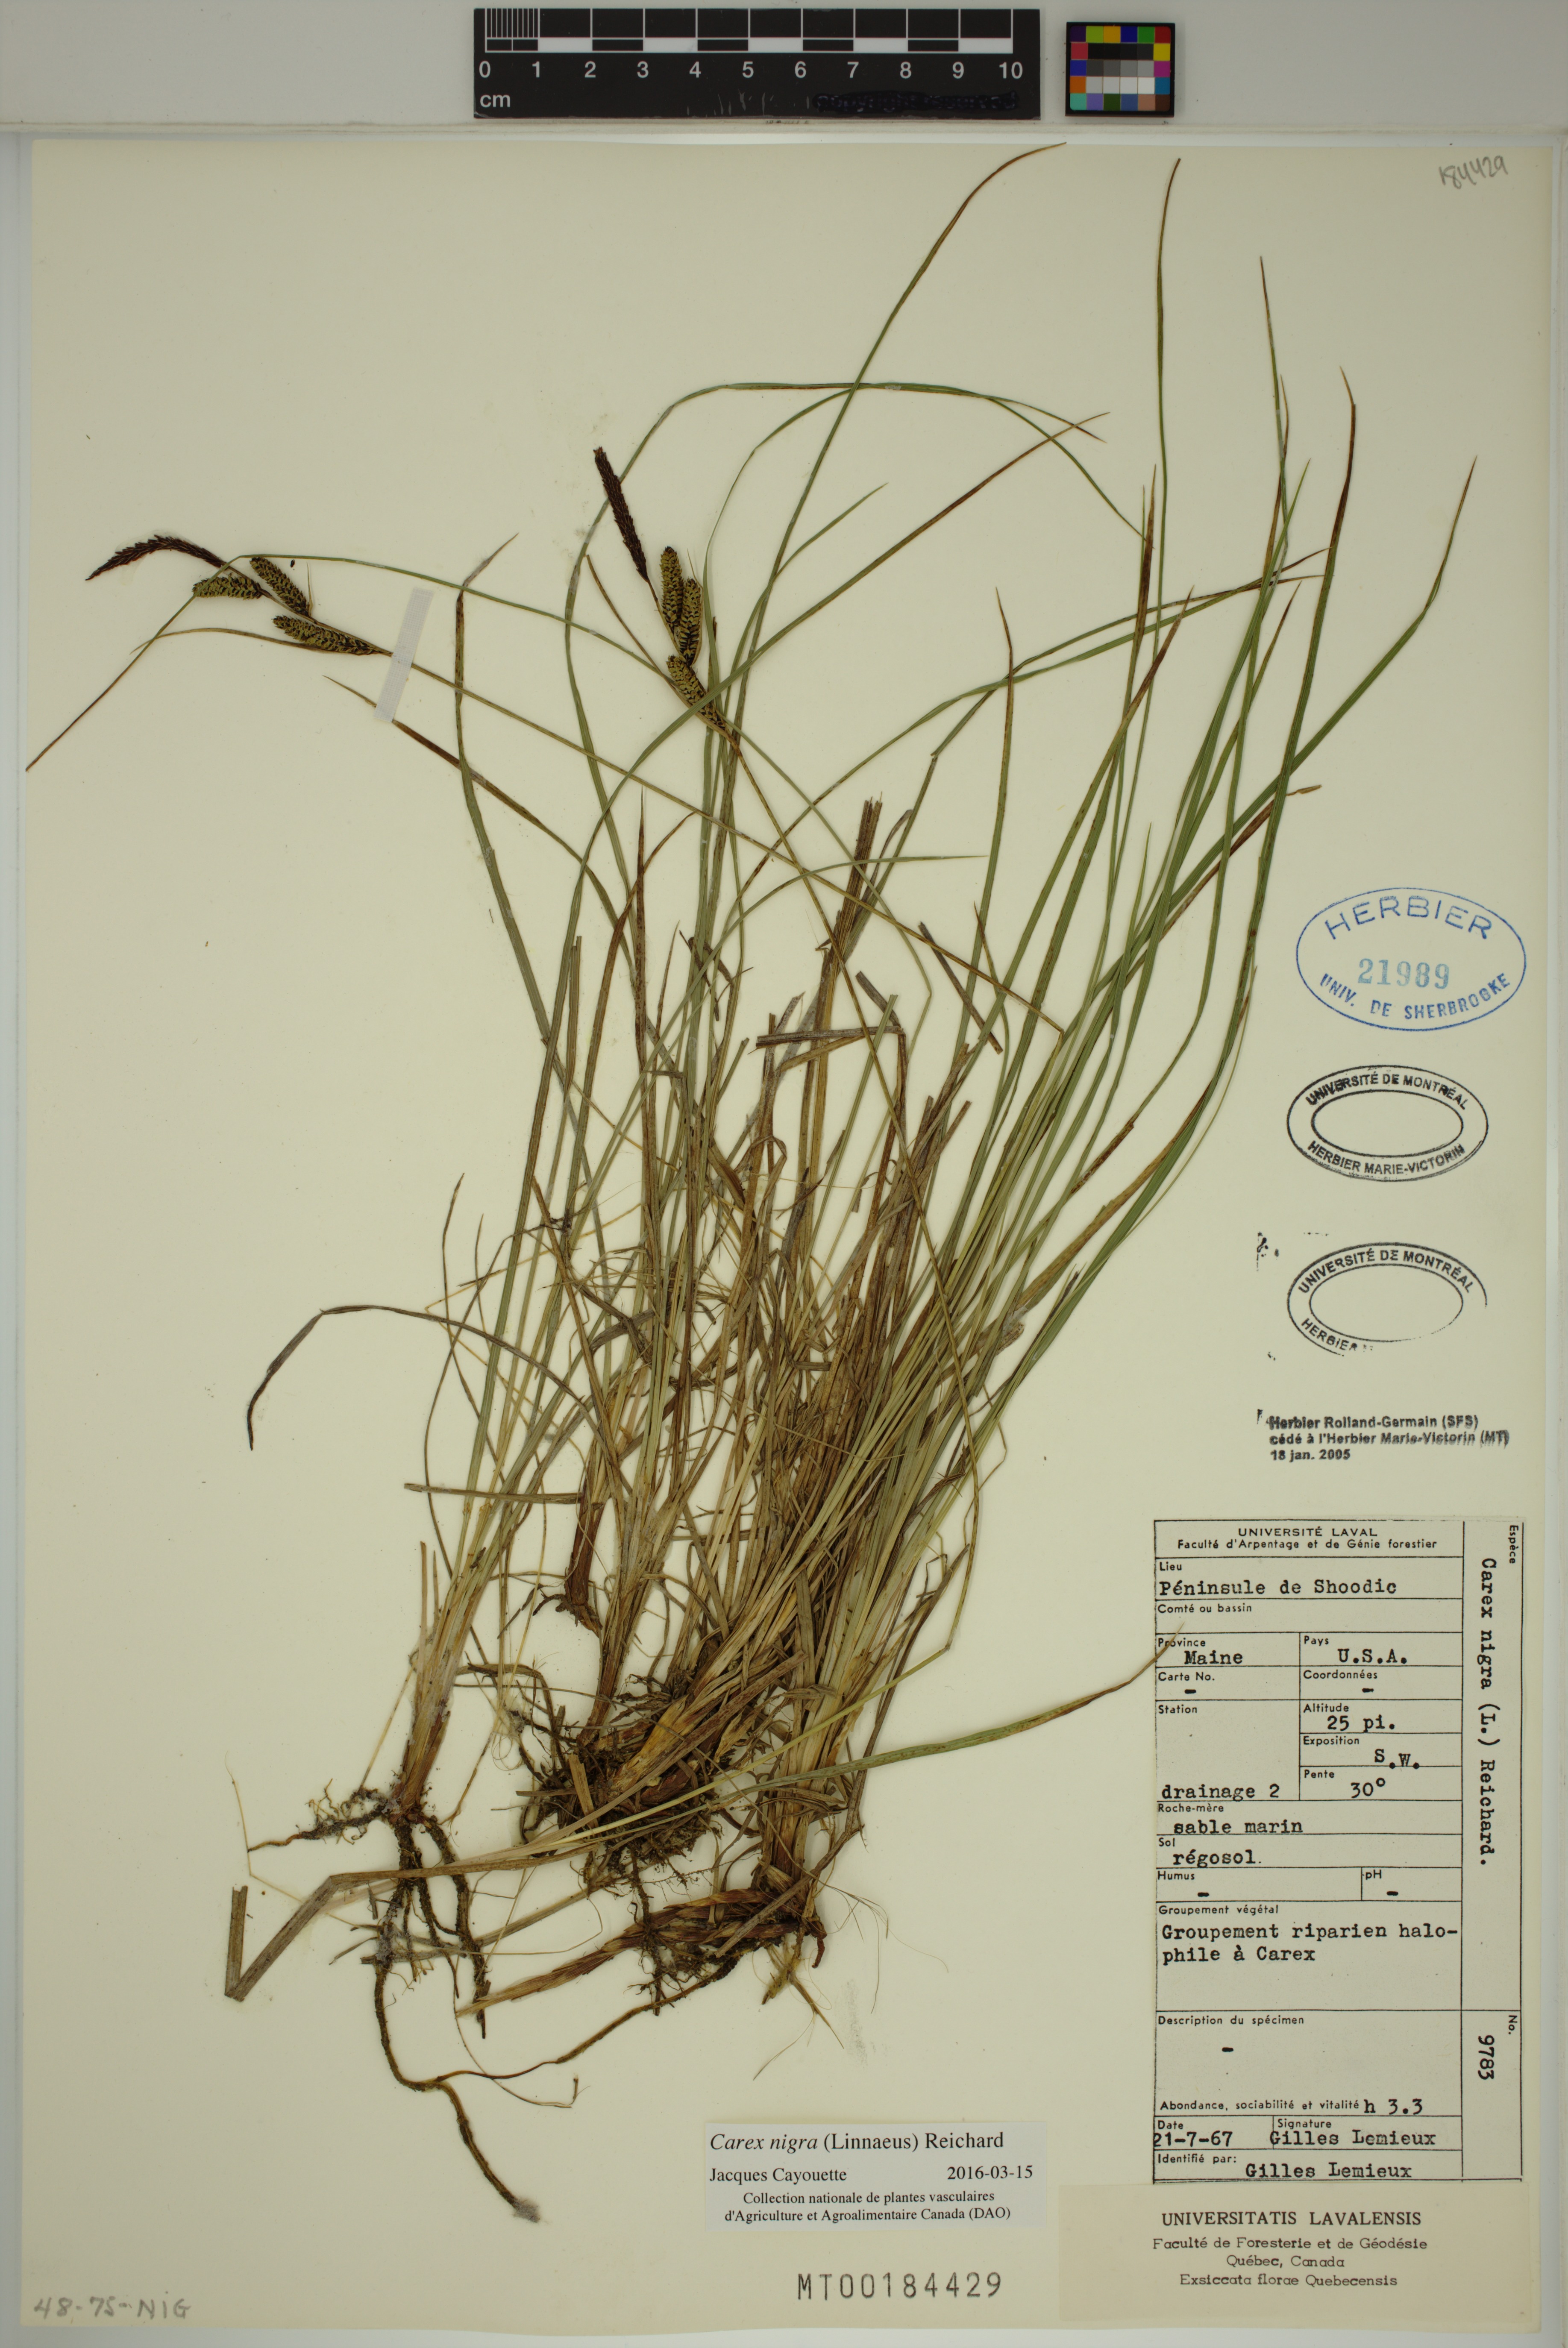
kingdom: Plantae
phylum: Tracheophyta
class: Liliopsida
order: Poales
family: Cyperaceae
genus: Carex
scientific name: Carex nigra
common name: Common sedge
